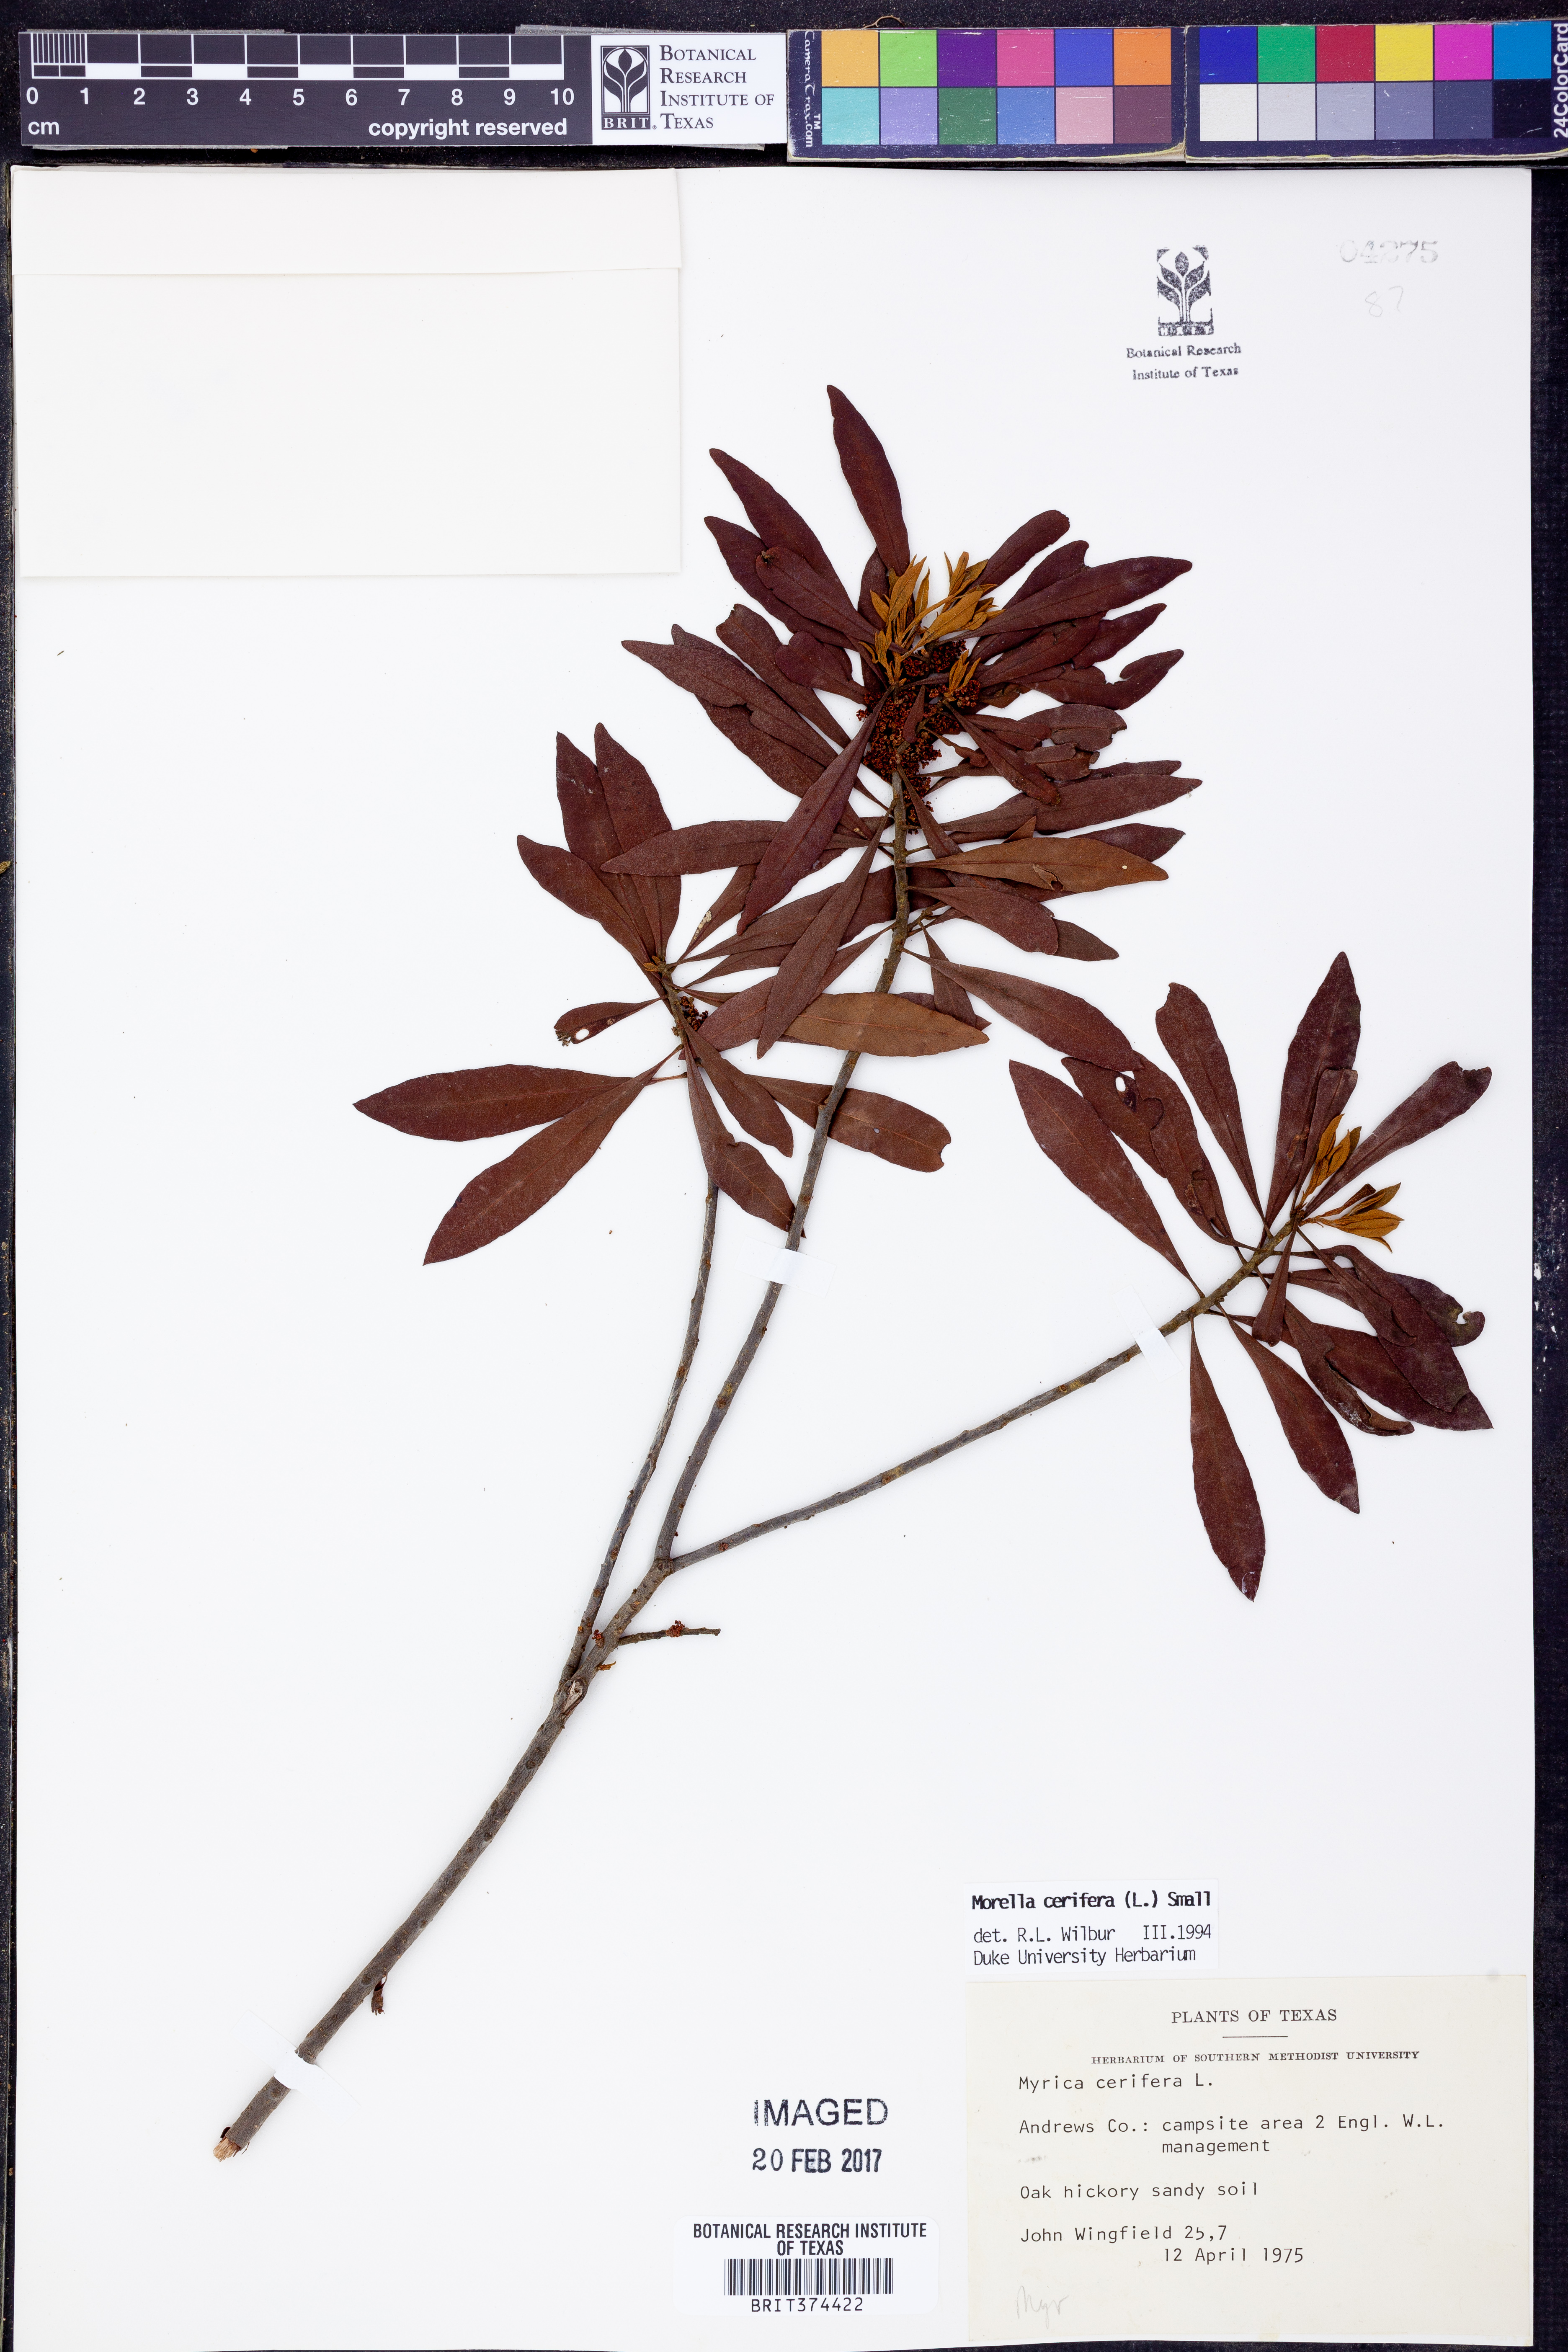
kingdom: Plantae
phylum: Tracheophyta
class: Magnoliopsida
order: Fagales
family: Myricaceae
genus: Morella
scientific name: Morella cerifera
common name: Wax myrtle
